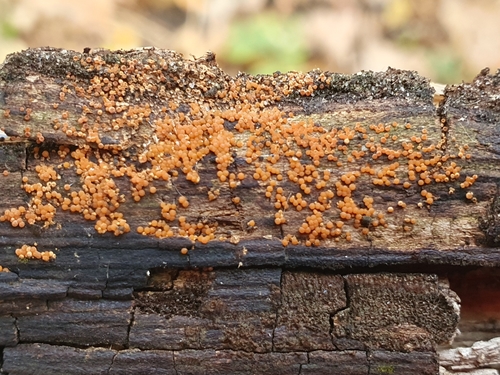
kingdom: Fungi
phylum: Ascomycota
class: Sordariomycetes
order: Hypocreales
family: Nectriaceae
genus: Hydropisphaera
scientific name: Hydropisphaera peziza
